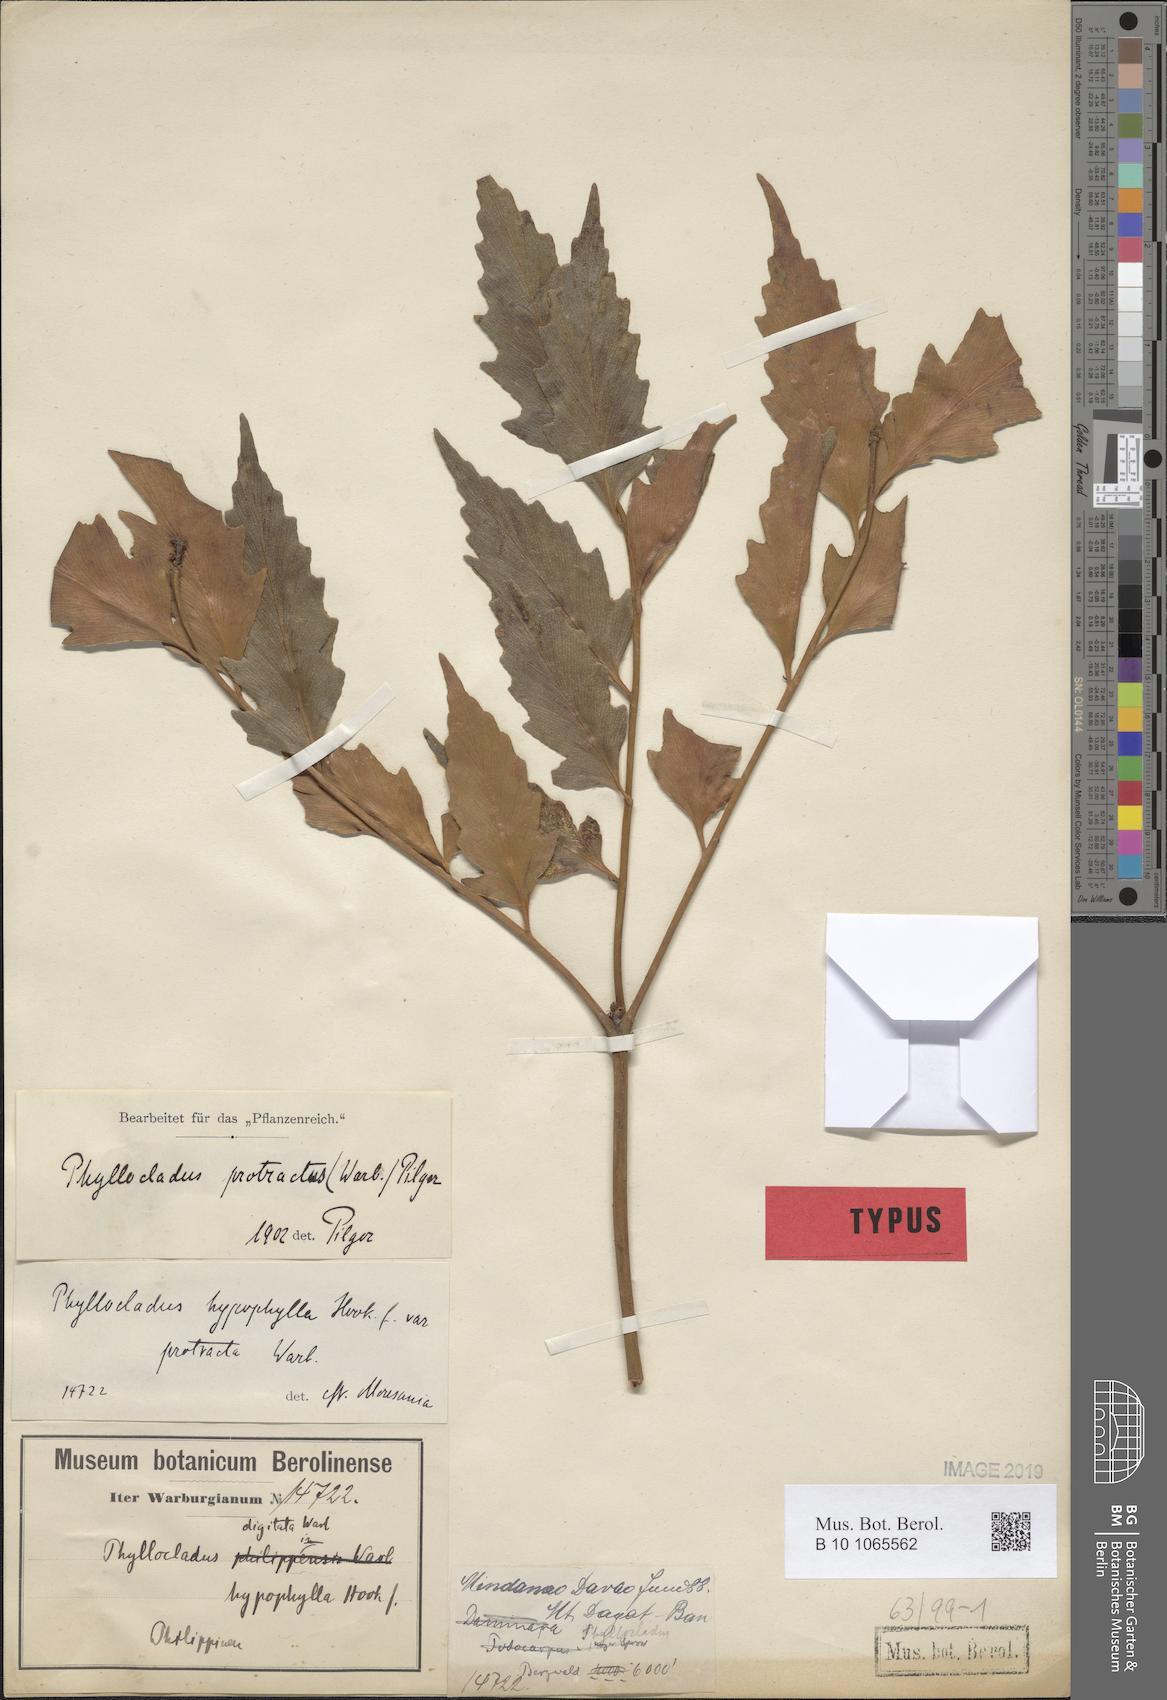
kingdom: Plantae
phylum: Tracheophyta
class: Pinopsida
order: Pinales
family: Phyllocladaceae
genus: Phyllocladus
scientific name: Phyllocladus hypophyllus
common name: Celery pine
